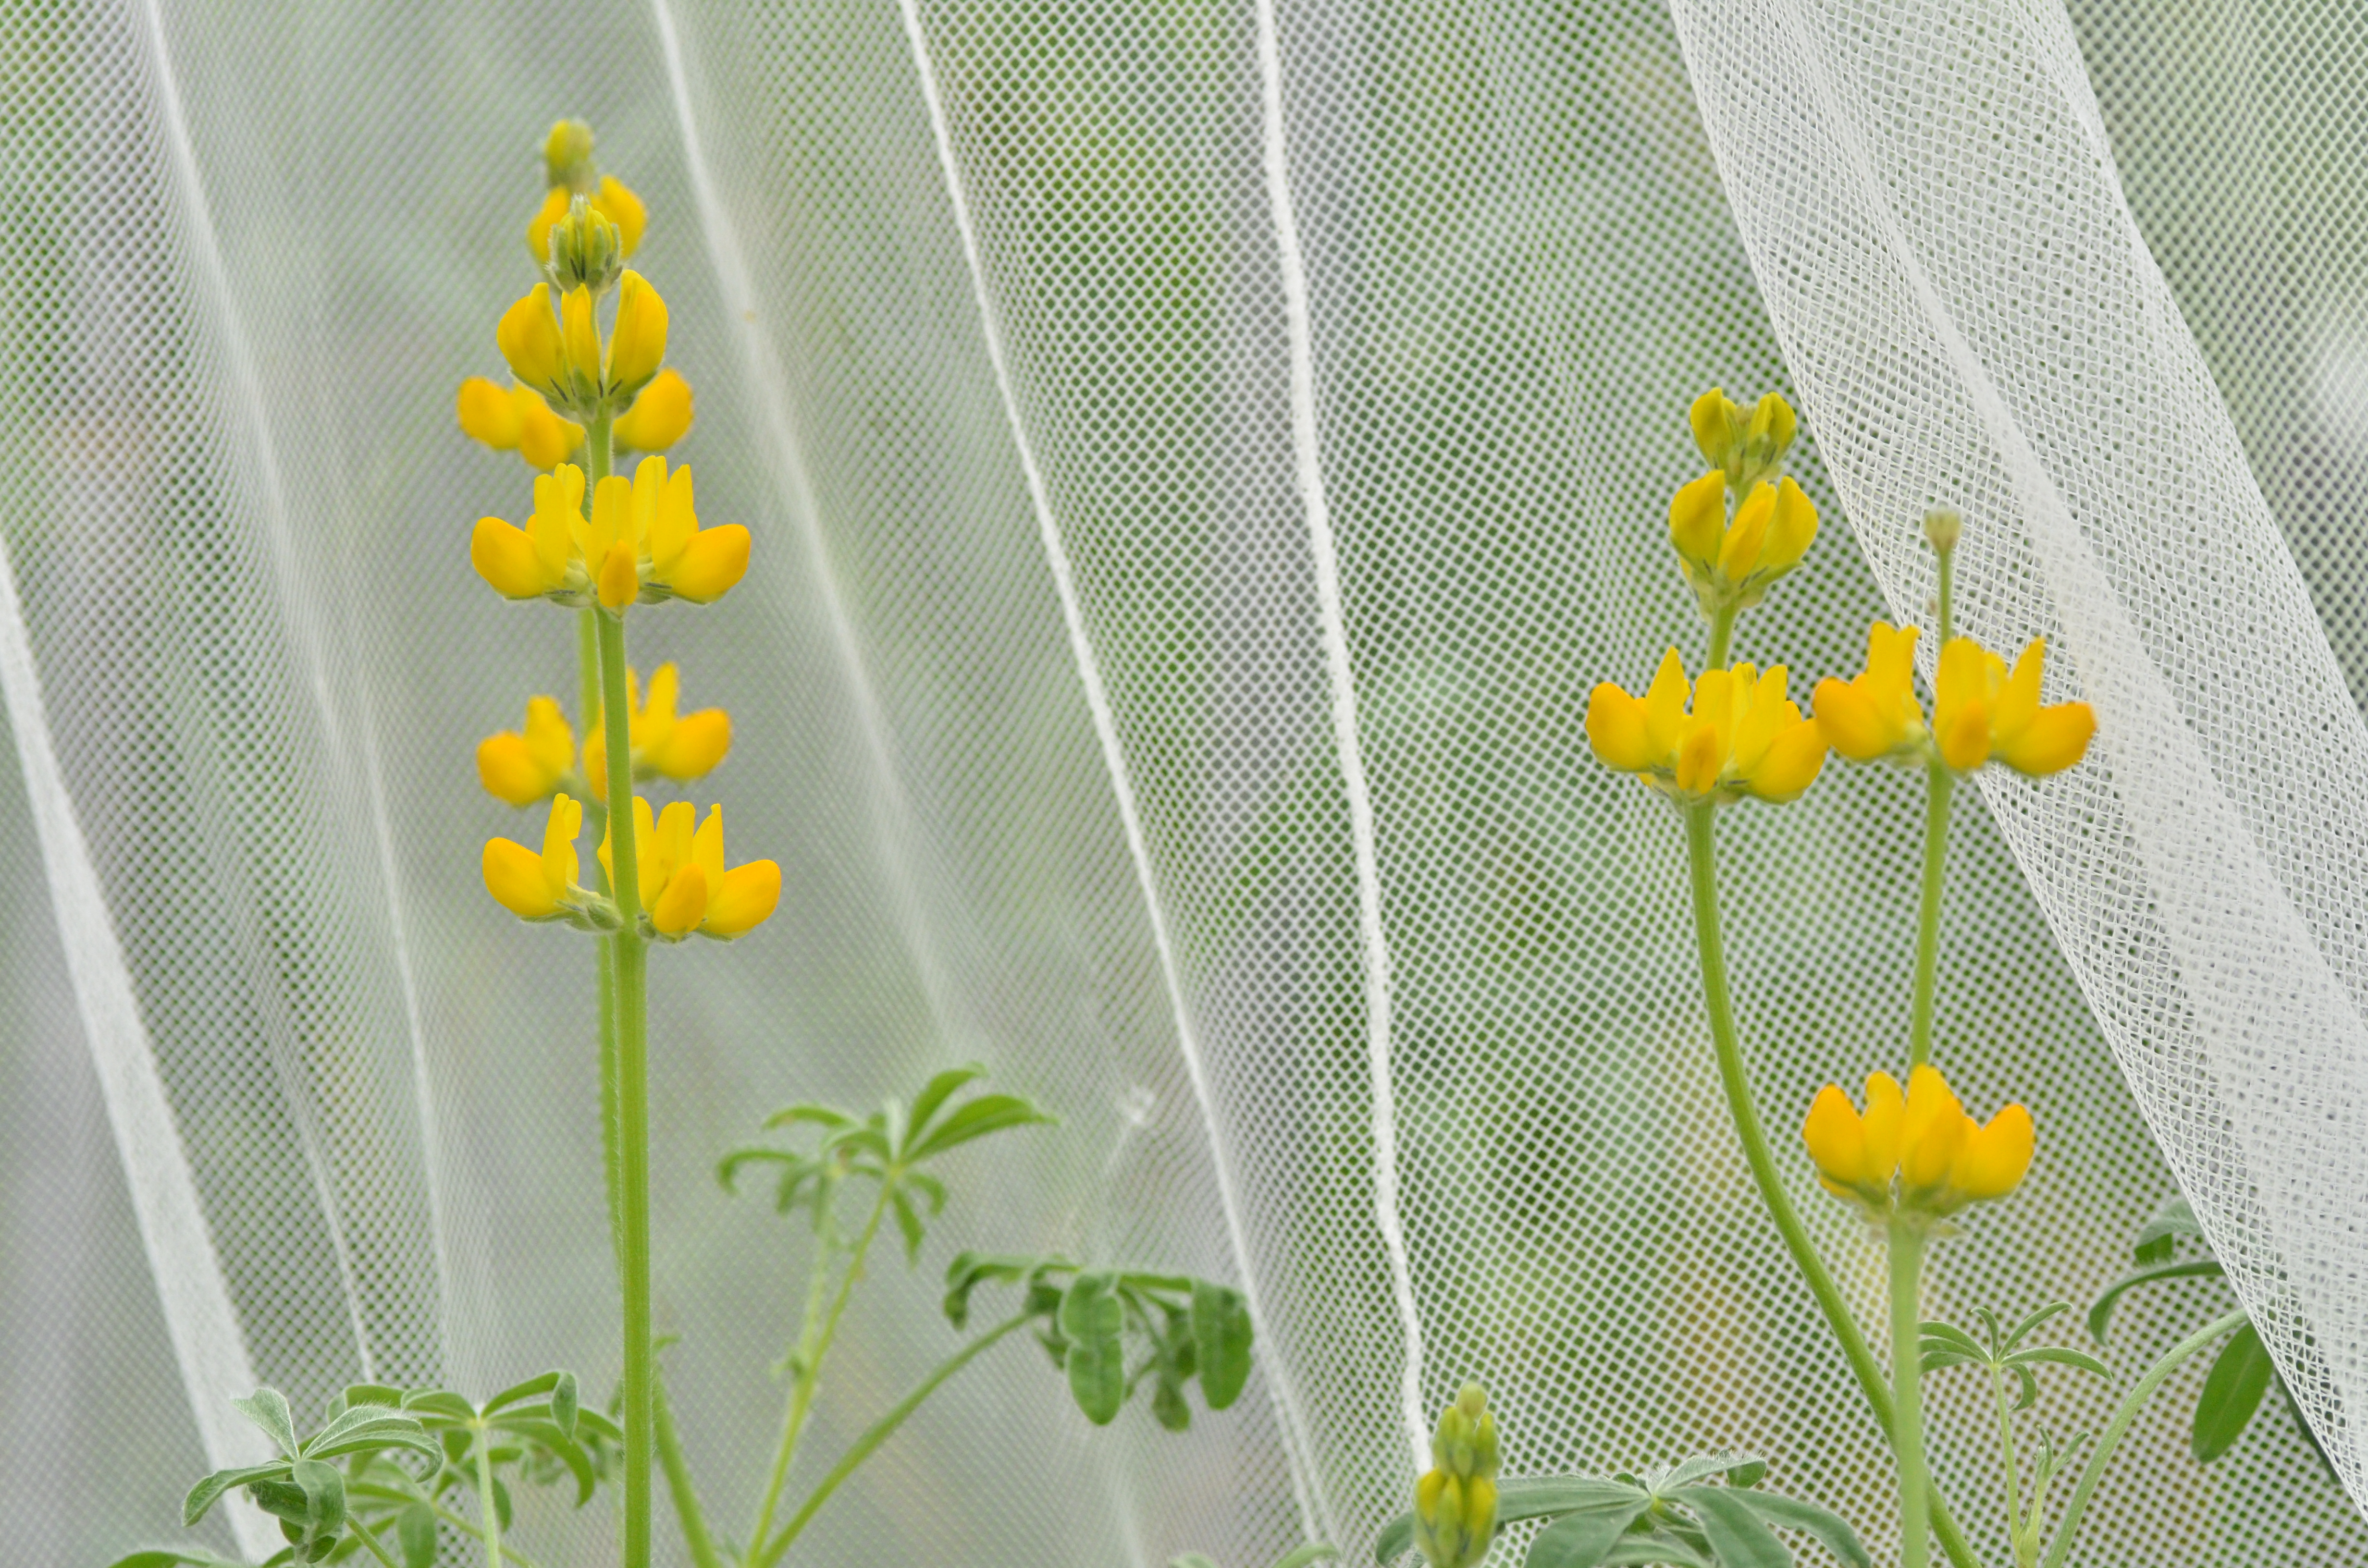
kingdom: Plantae
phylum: Tracheophyta
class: Magnoliopsida
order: Fabales
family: Fabaceae
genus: Lupinus
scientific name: Lupinus luteus
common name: European yellow lupine
